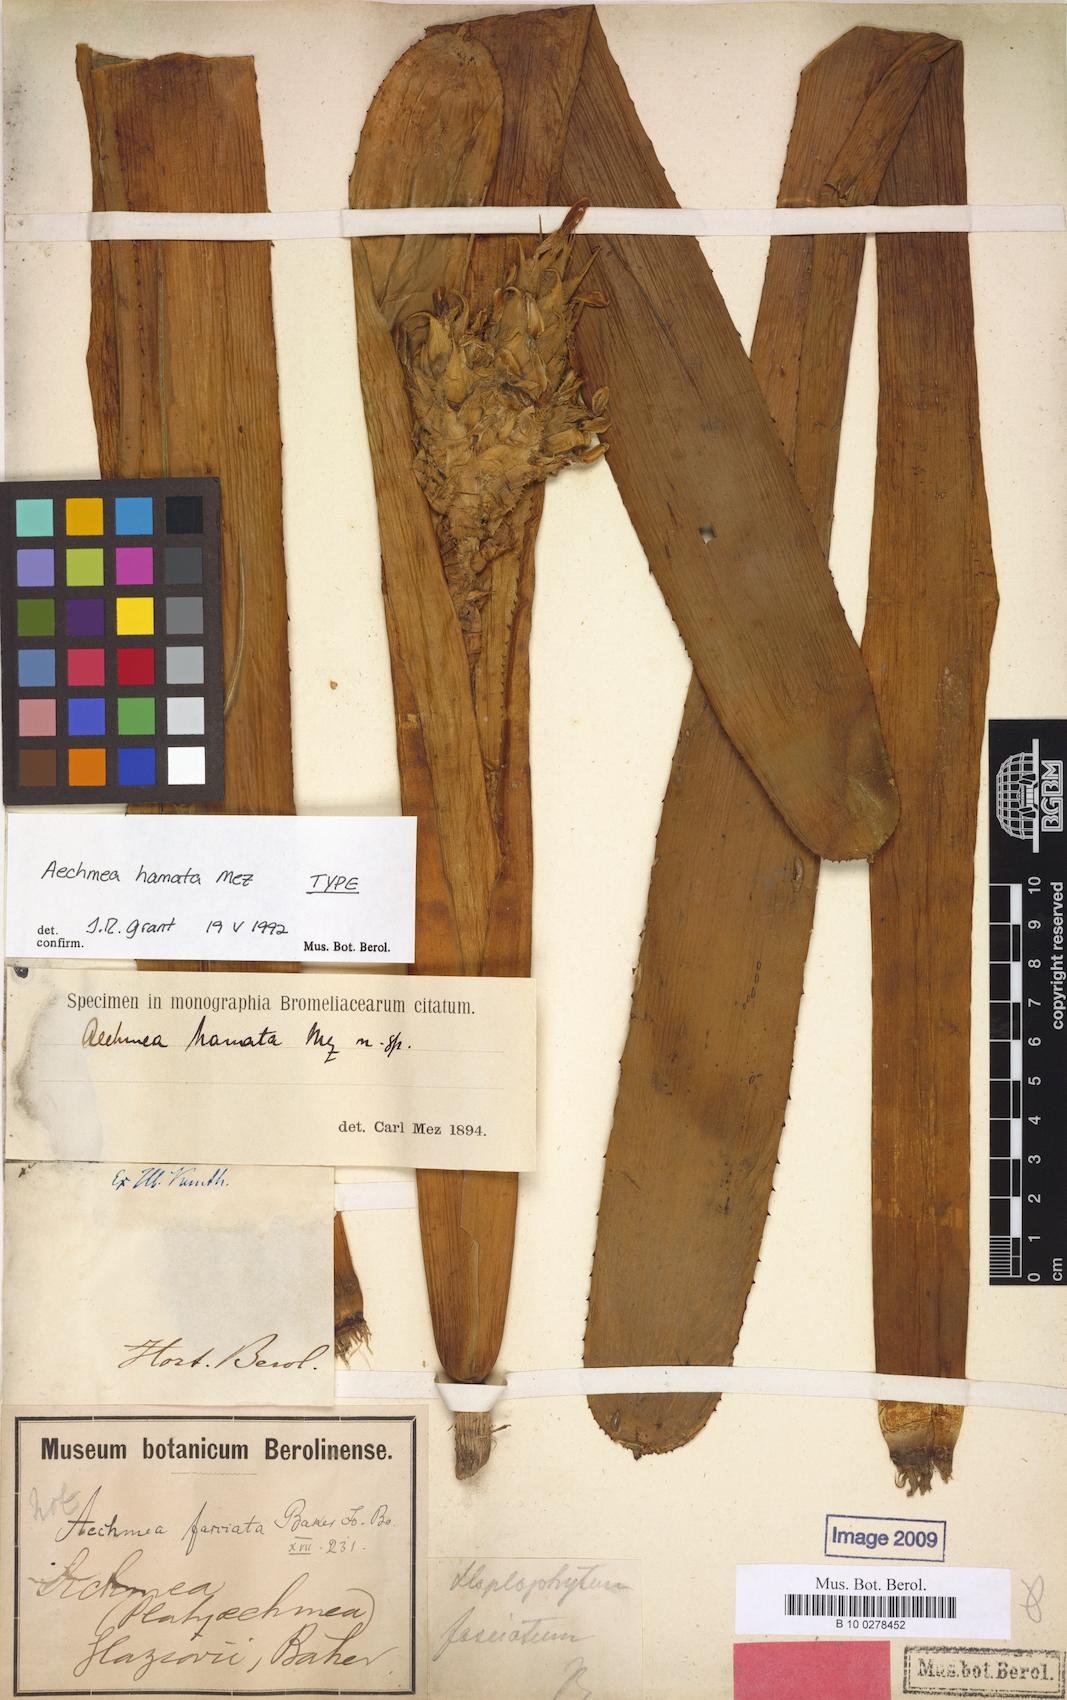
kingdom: Plantae
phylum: Tracheophyta
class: Liliopsida
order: Poales
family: Bromeliaceae
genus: Aechmea
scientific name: Aechmea fasciata
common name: Urnplant
